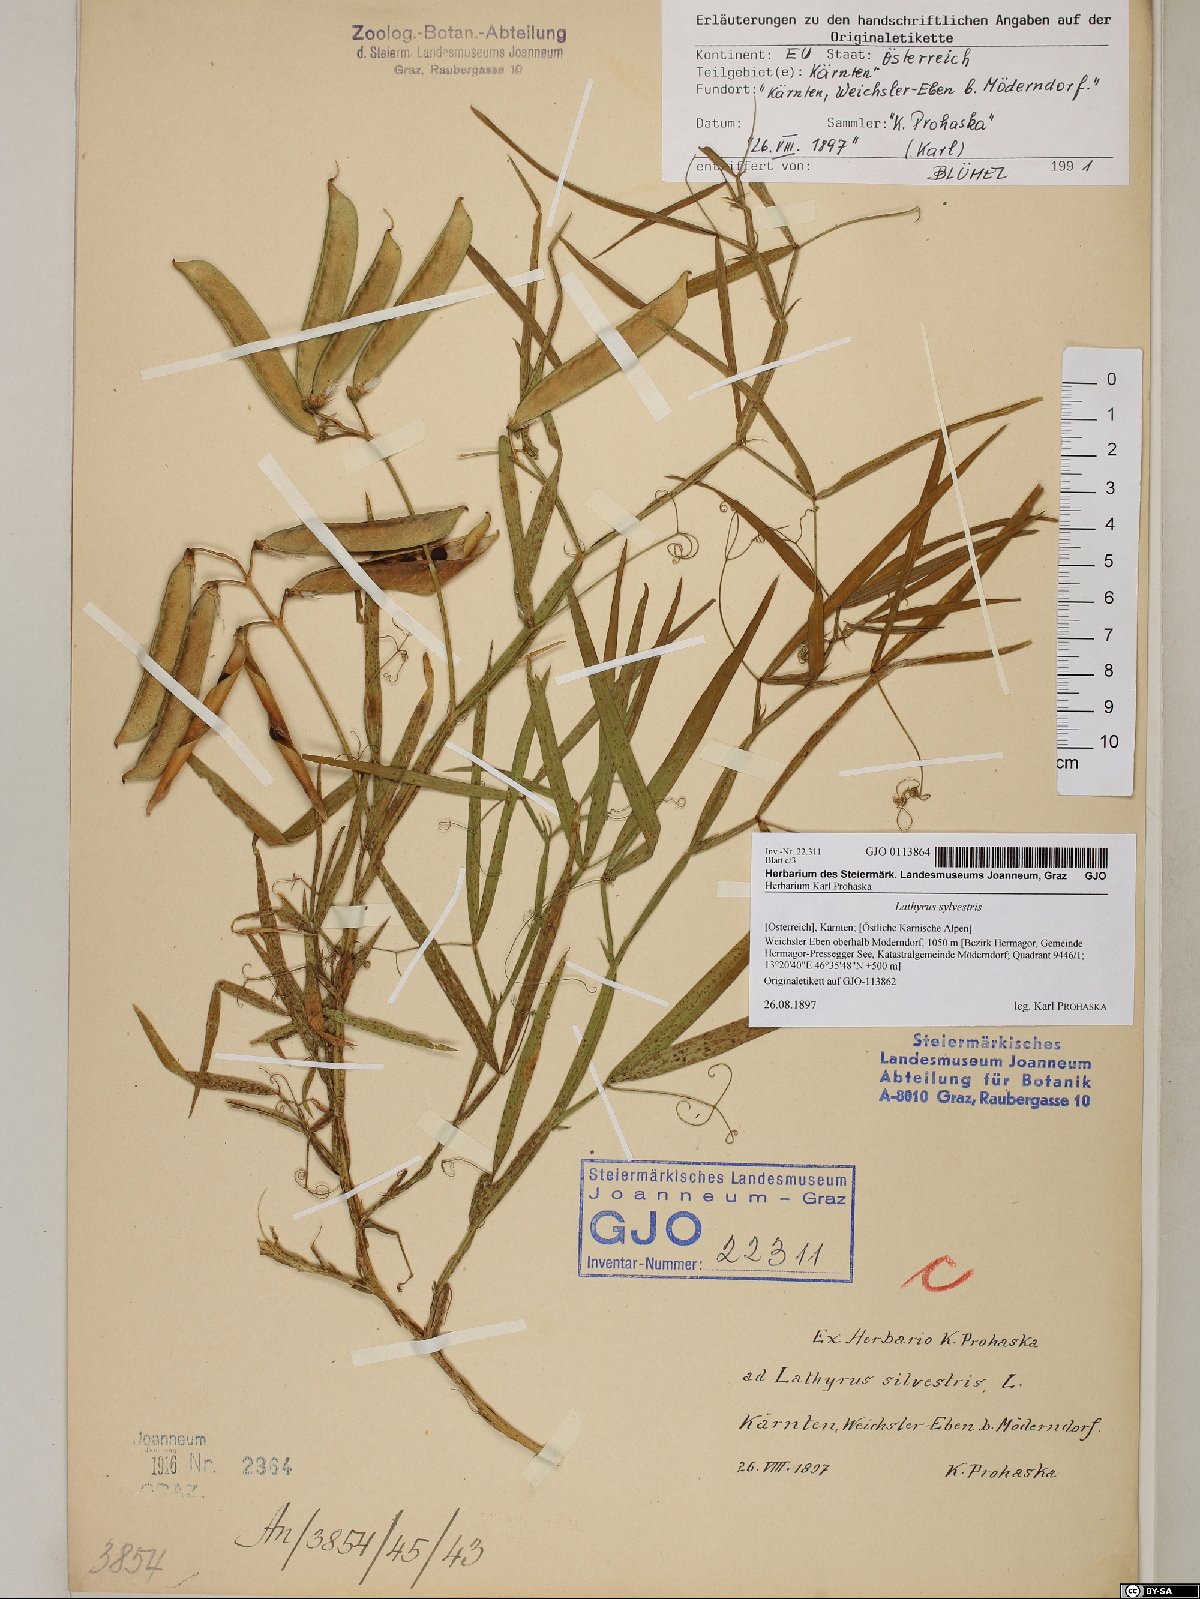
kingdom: Plantae
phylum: Tracheophyta
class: Magnoliopsida
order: Fabales
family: Fabaceae
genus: Lathyrus
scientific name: Lathyrus sylvestris
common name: Flat pea
